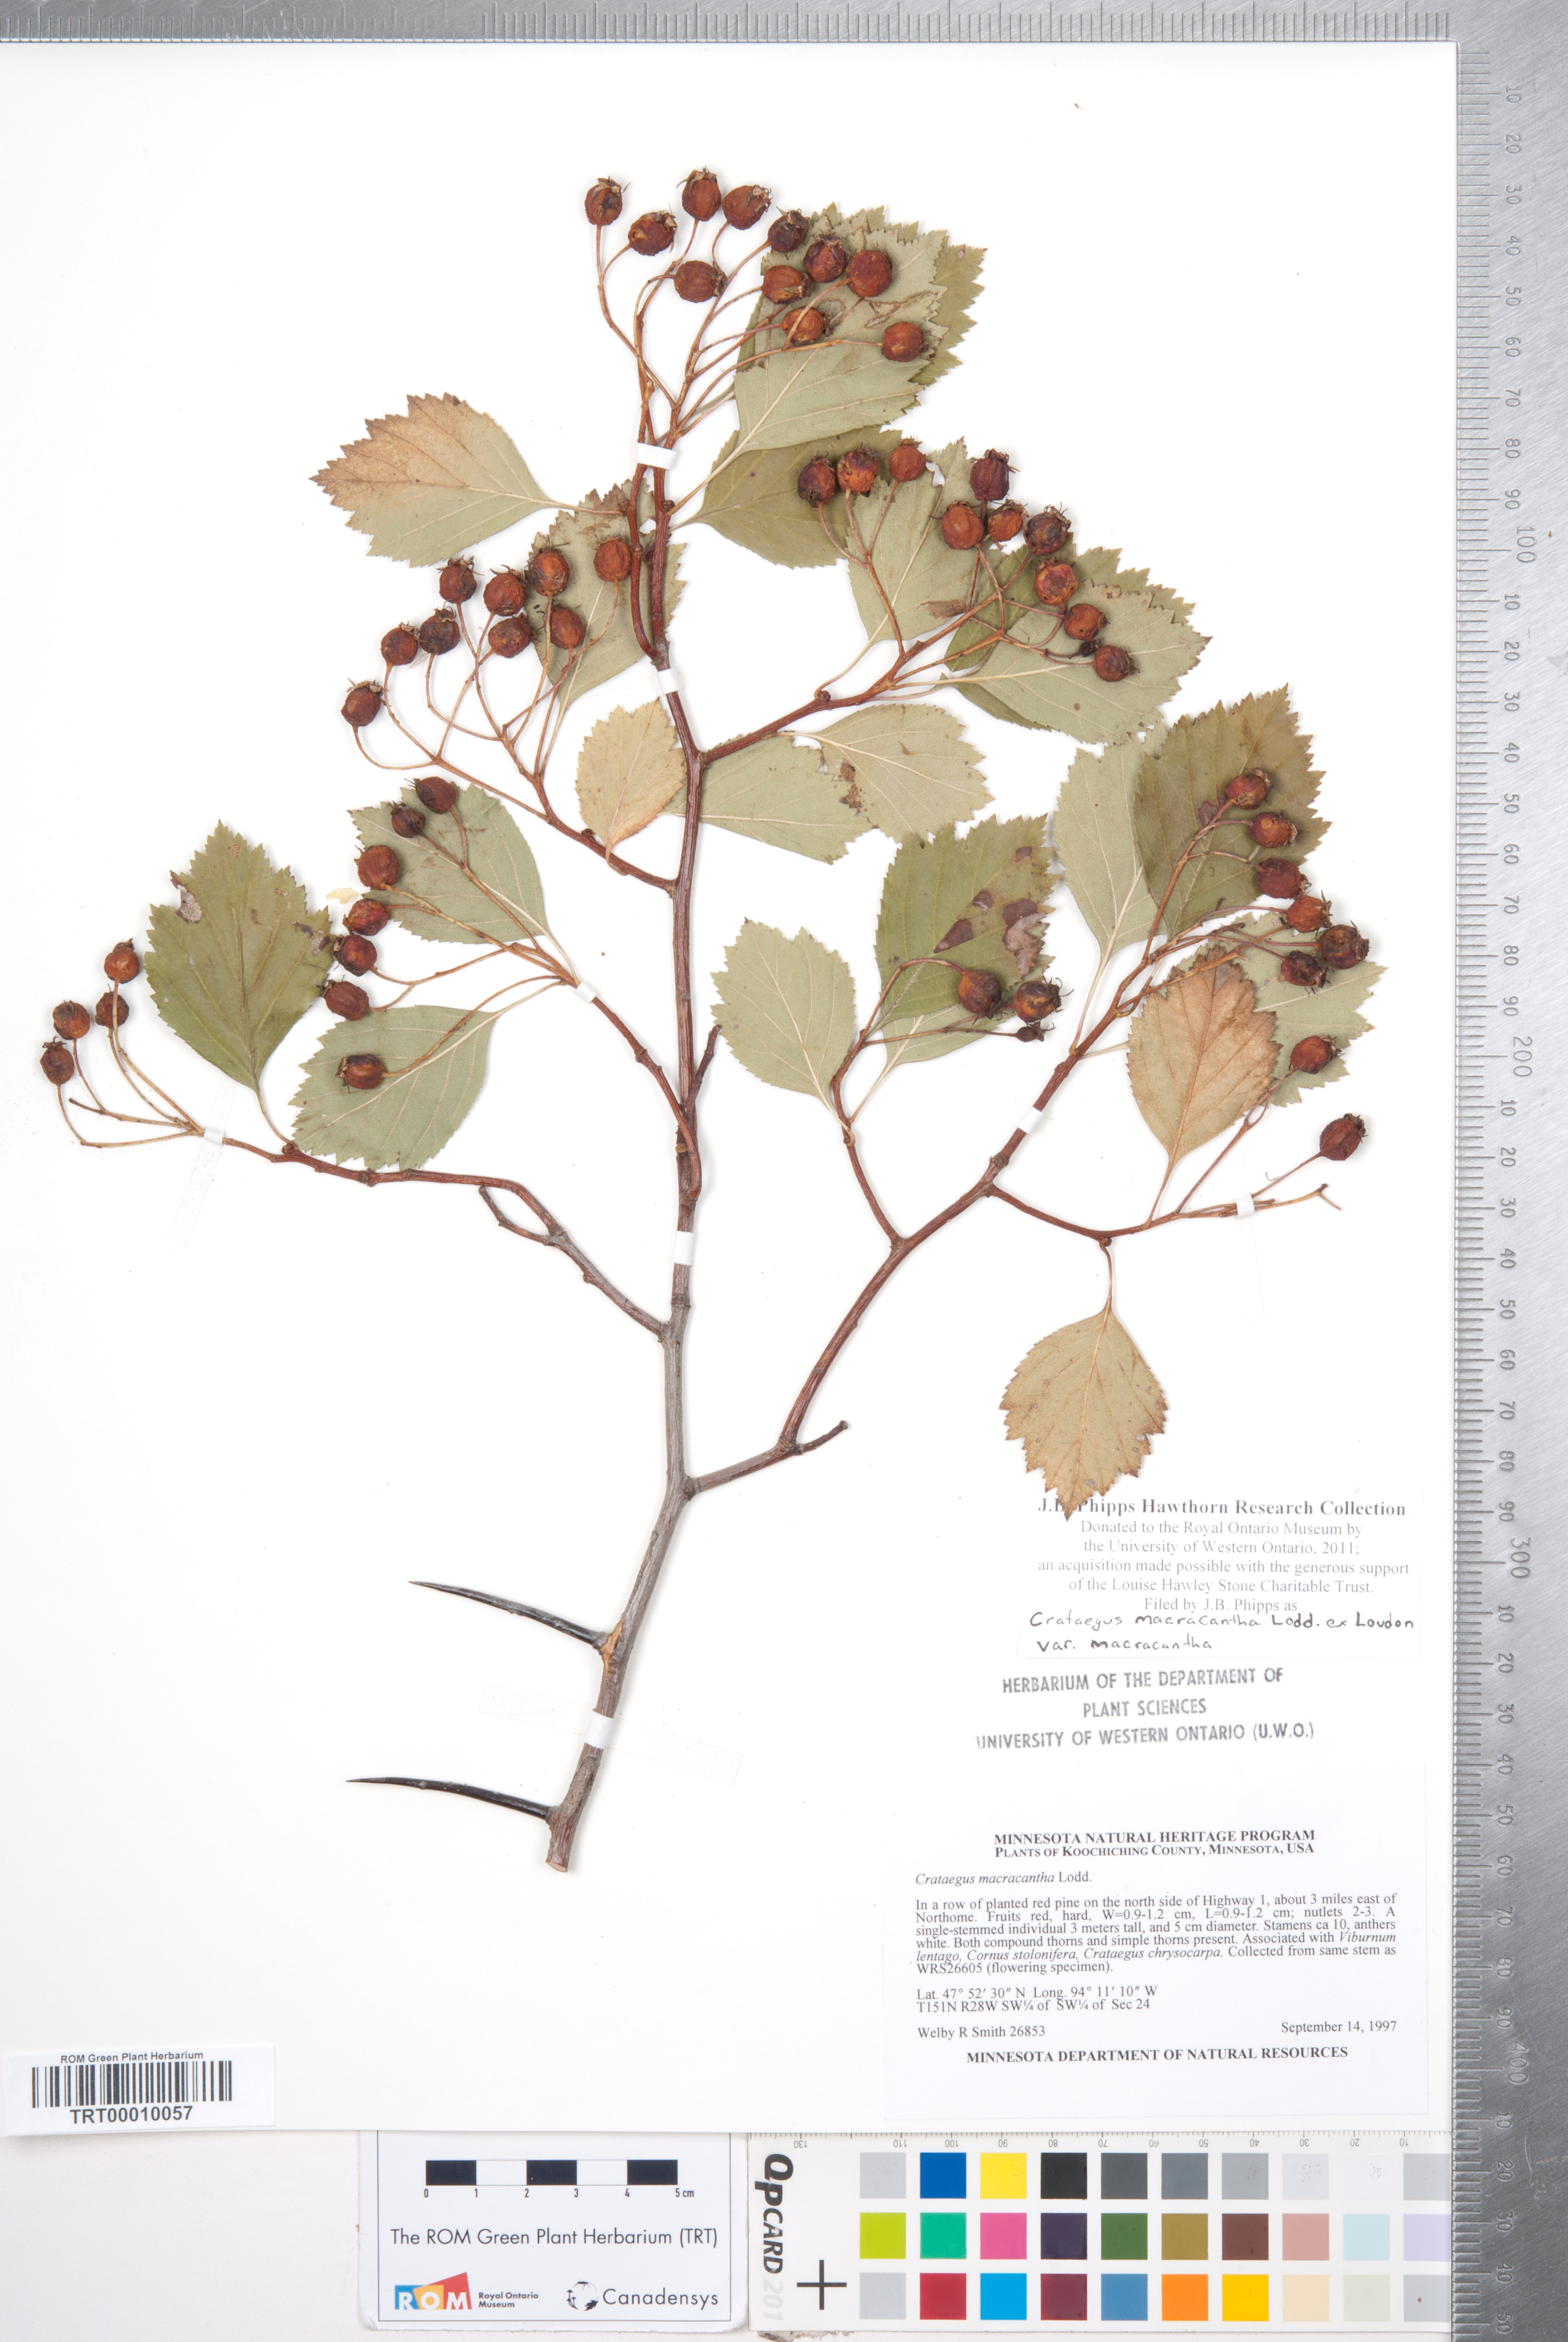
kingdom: Plantae
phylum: Tracheophyta
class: Magnoliopsida
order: Rosales
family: Rosaceae
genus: Crataegus
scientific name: Crataegus macracantha
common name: Large-thorn hawthorn
